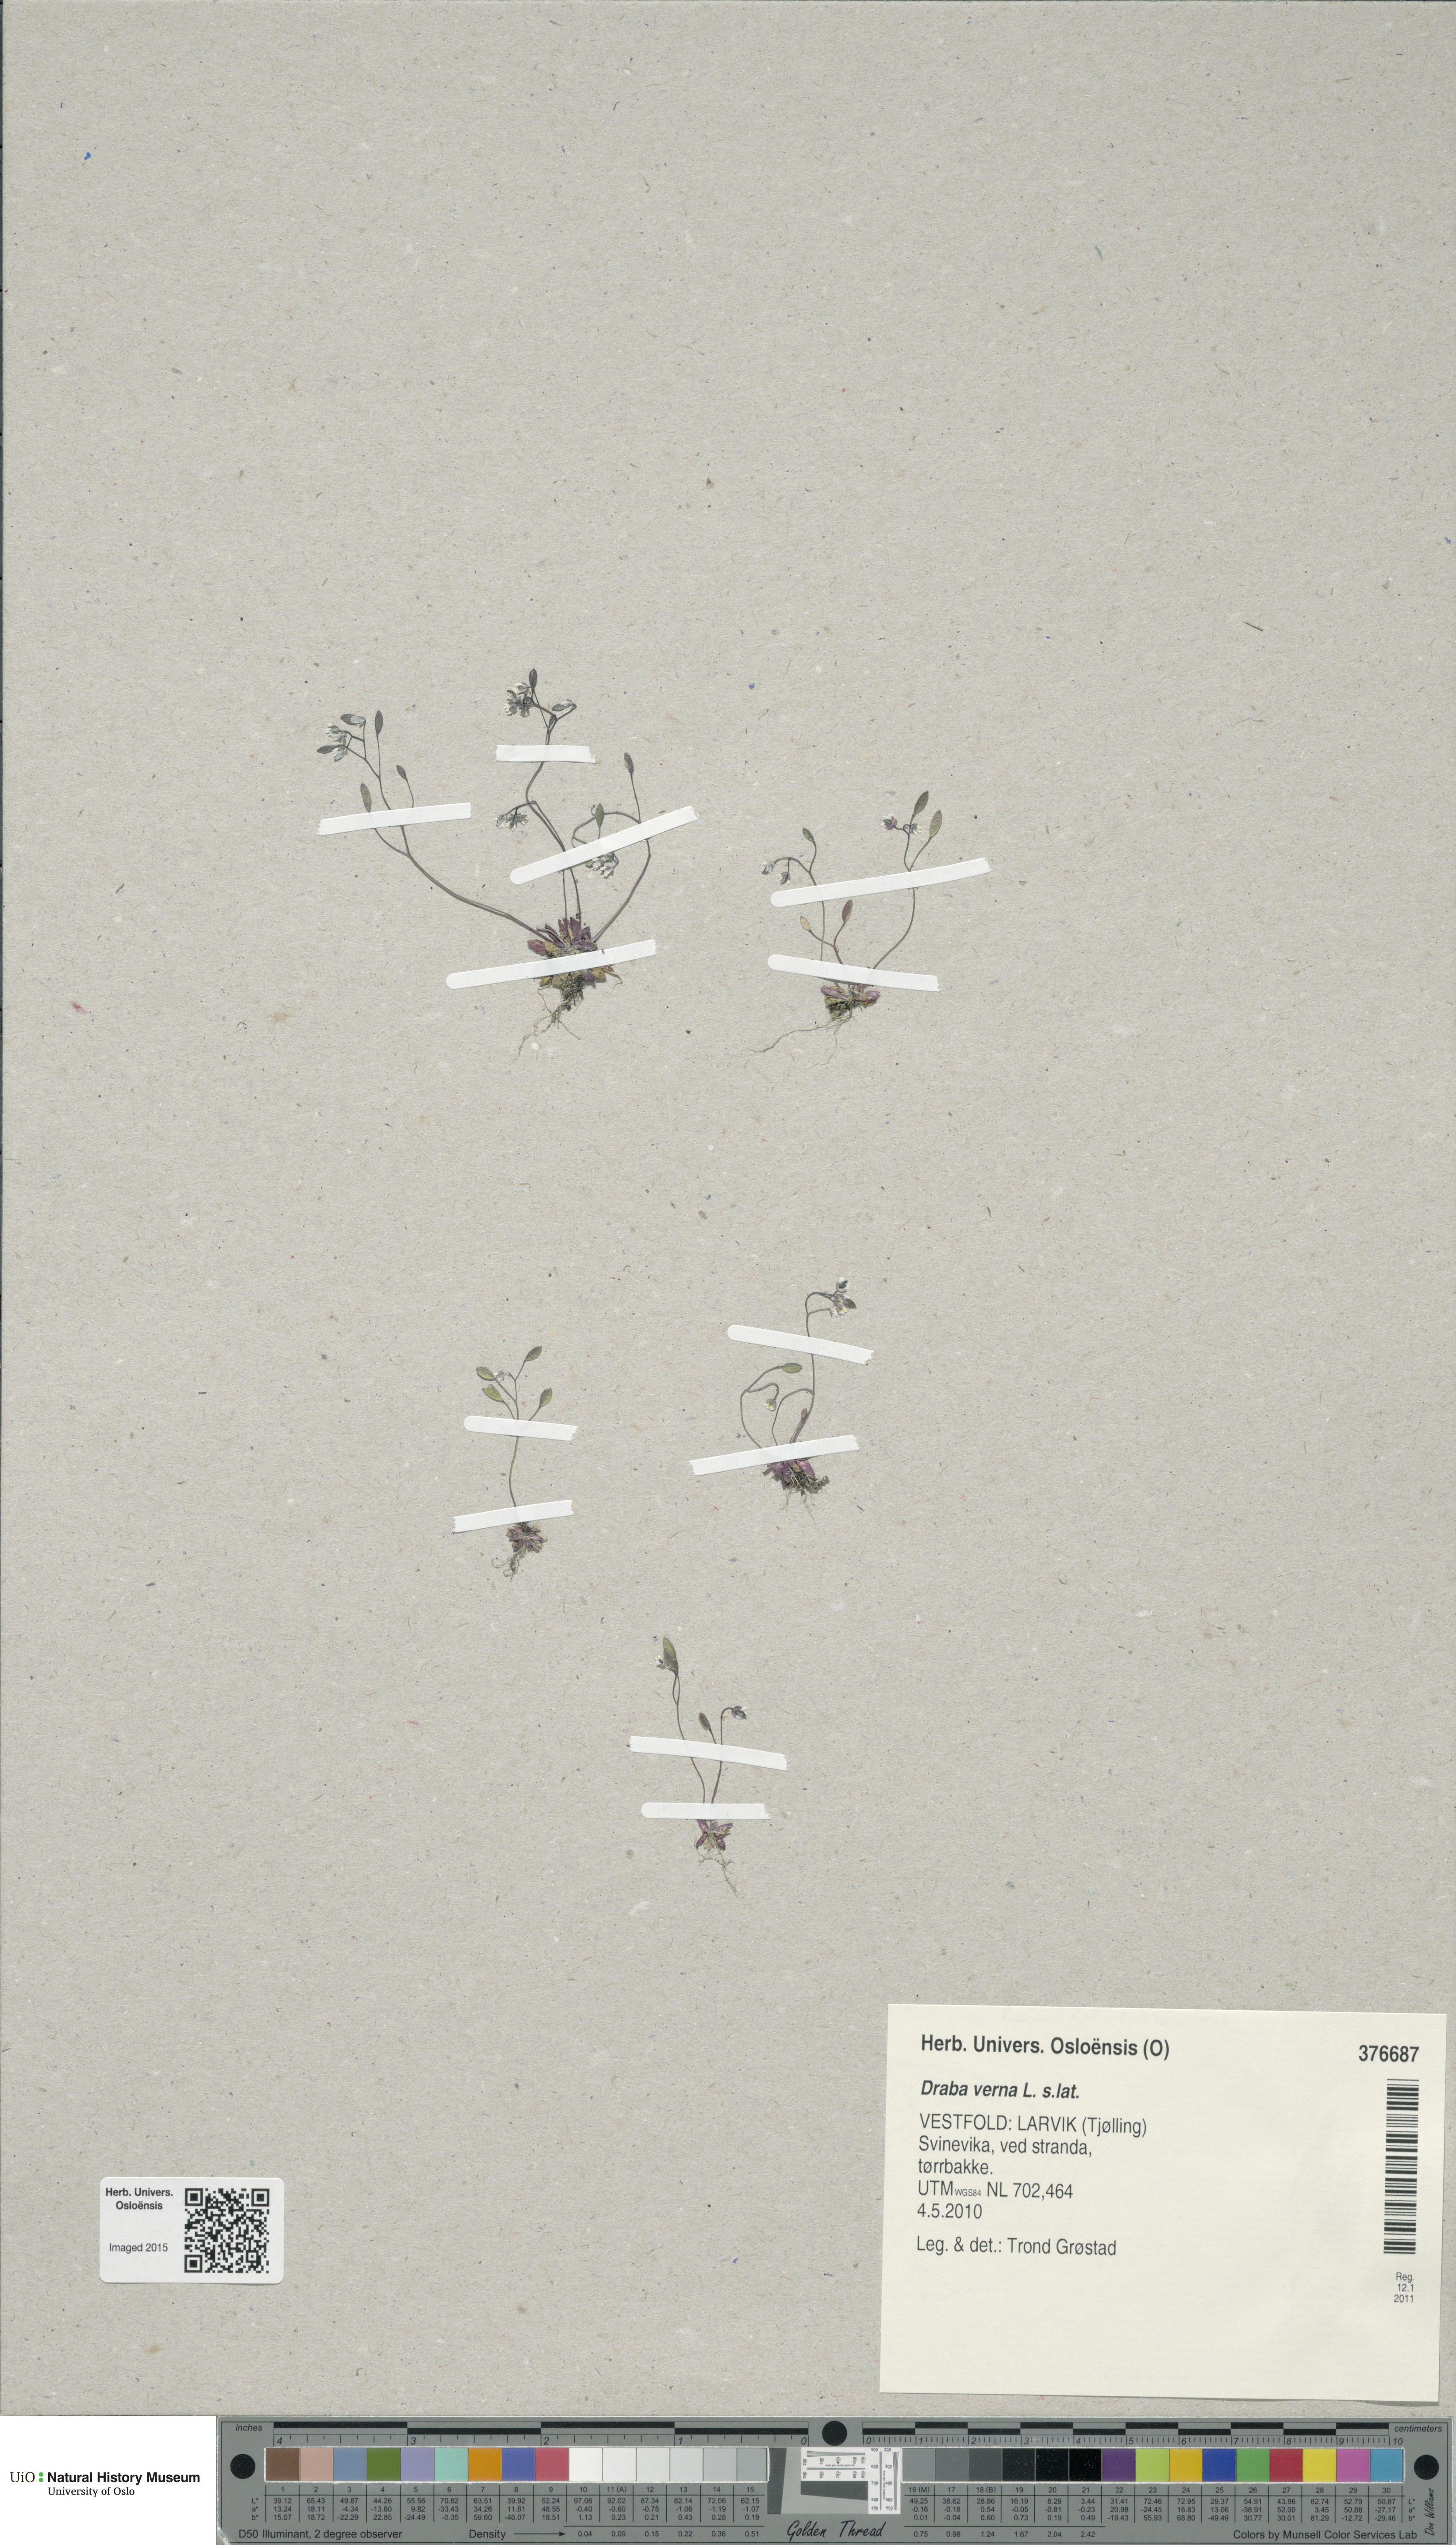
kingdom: Plantae
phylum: Tracheophyta
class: Magnoliopsida
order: Brassicales
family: Brassicaceae
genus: Draba
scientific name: Draba verna
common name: Spring draba
